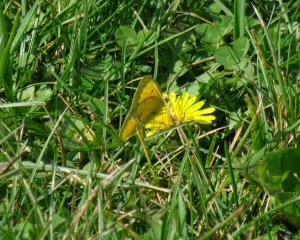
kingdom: Animalia
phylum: Arthropoda
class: Insecta
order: Lepidoptera
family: Pieridae
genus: Colias
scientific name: Colias eurytheme
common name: Orange Sulphur
